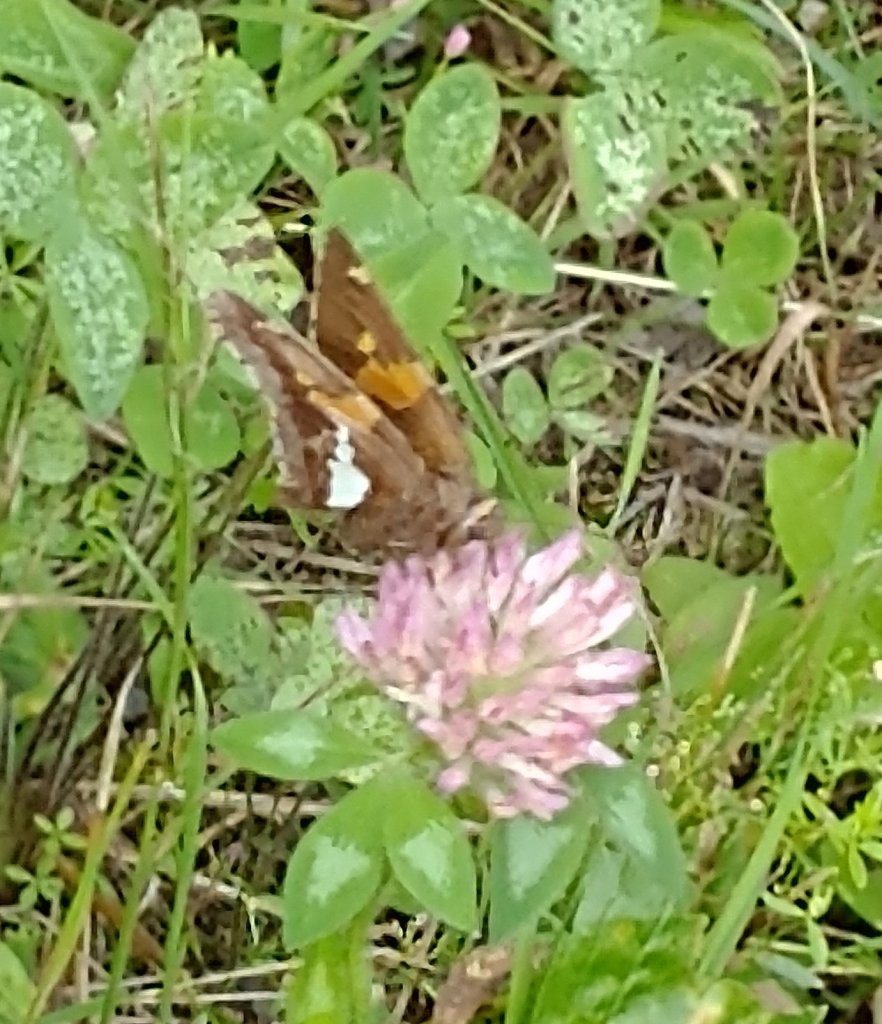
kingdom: Animalia
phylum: Arthropoda
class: Insecta
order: Lepidoptera
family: Hesperiidae
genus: Epargyreus
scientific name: Epargyreus clarus
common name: Silver-spotted Skipper
